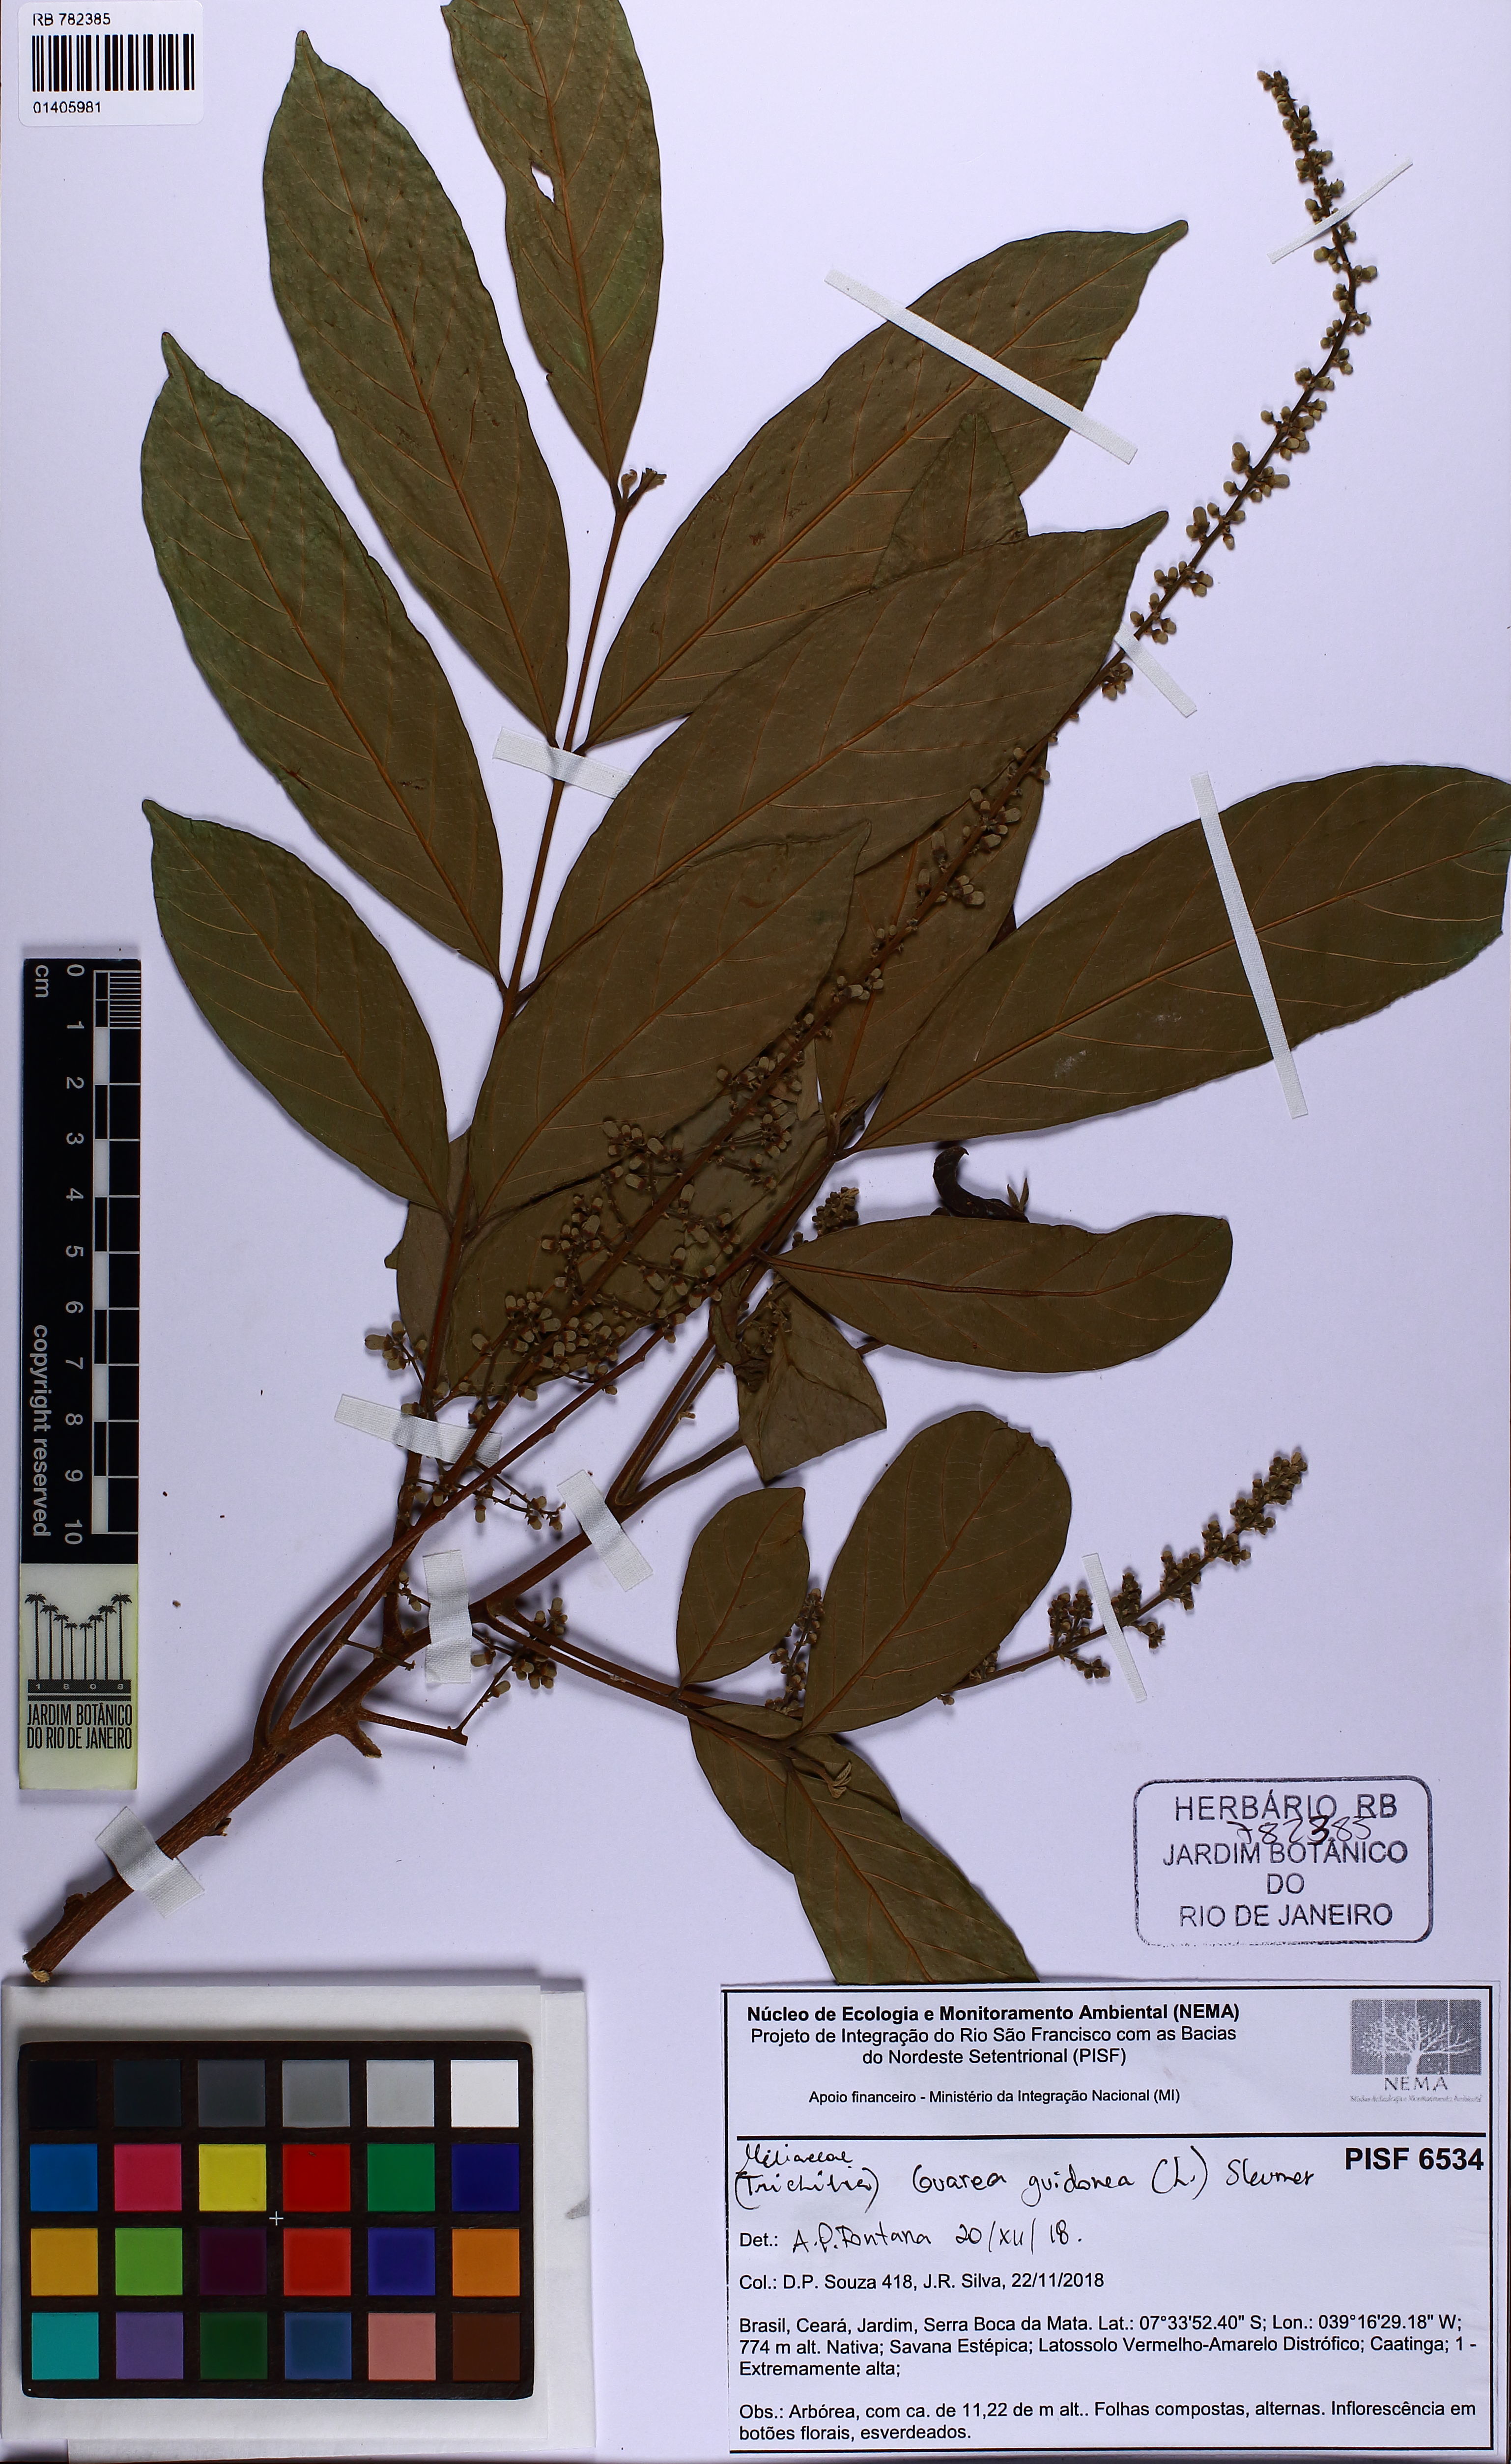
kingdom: Plantae
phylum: Tracheophyta
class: Magnoliopsida
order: Sapindales
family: Meliaceae
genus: Guarea
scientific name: Guarea guidonia
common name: American muskwood
